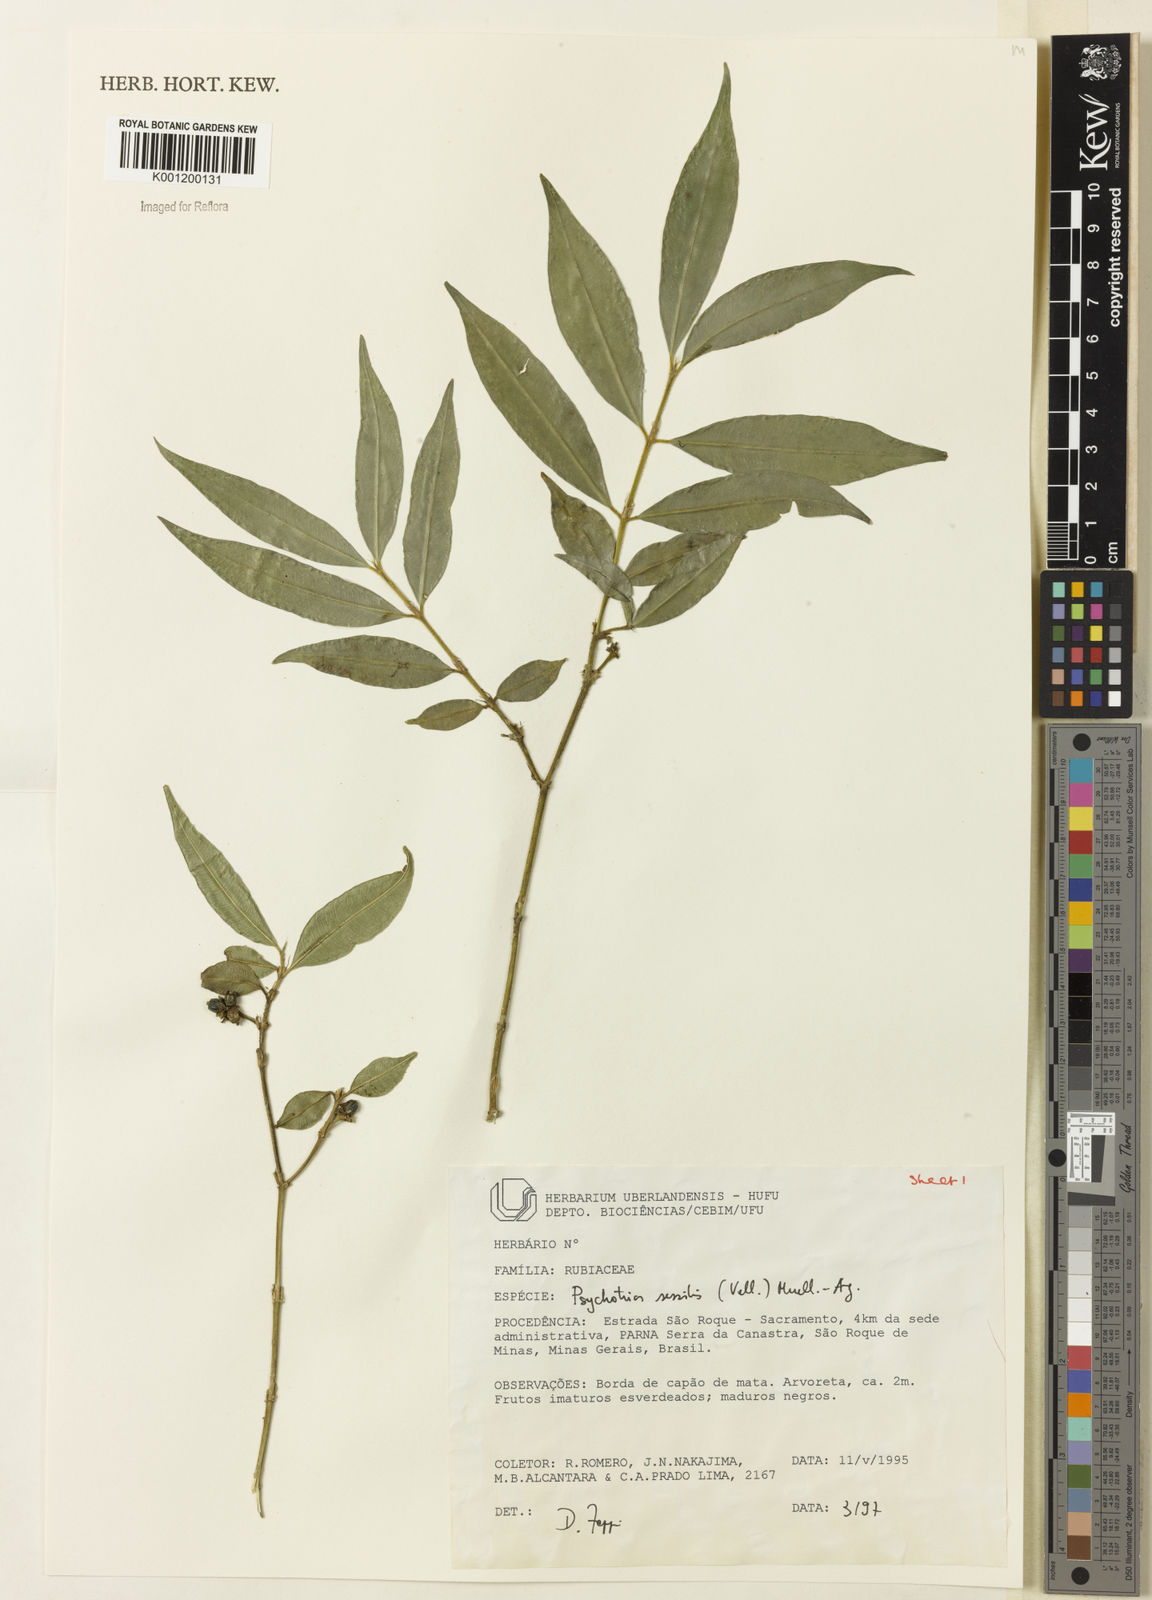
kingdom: Plantae
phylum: Tracheophyta
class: Magnoliopsida
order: Gentianales
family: Rubiaceae
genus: Rudgea
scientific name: Rudgea sessilis
